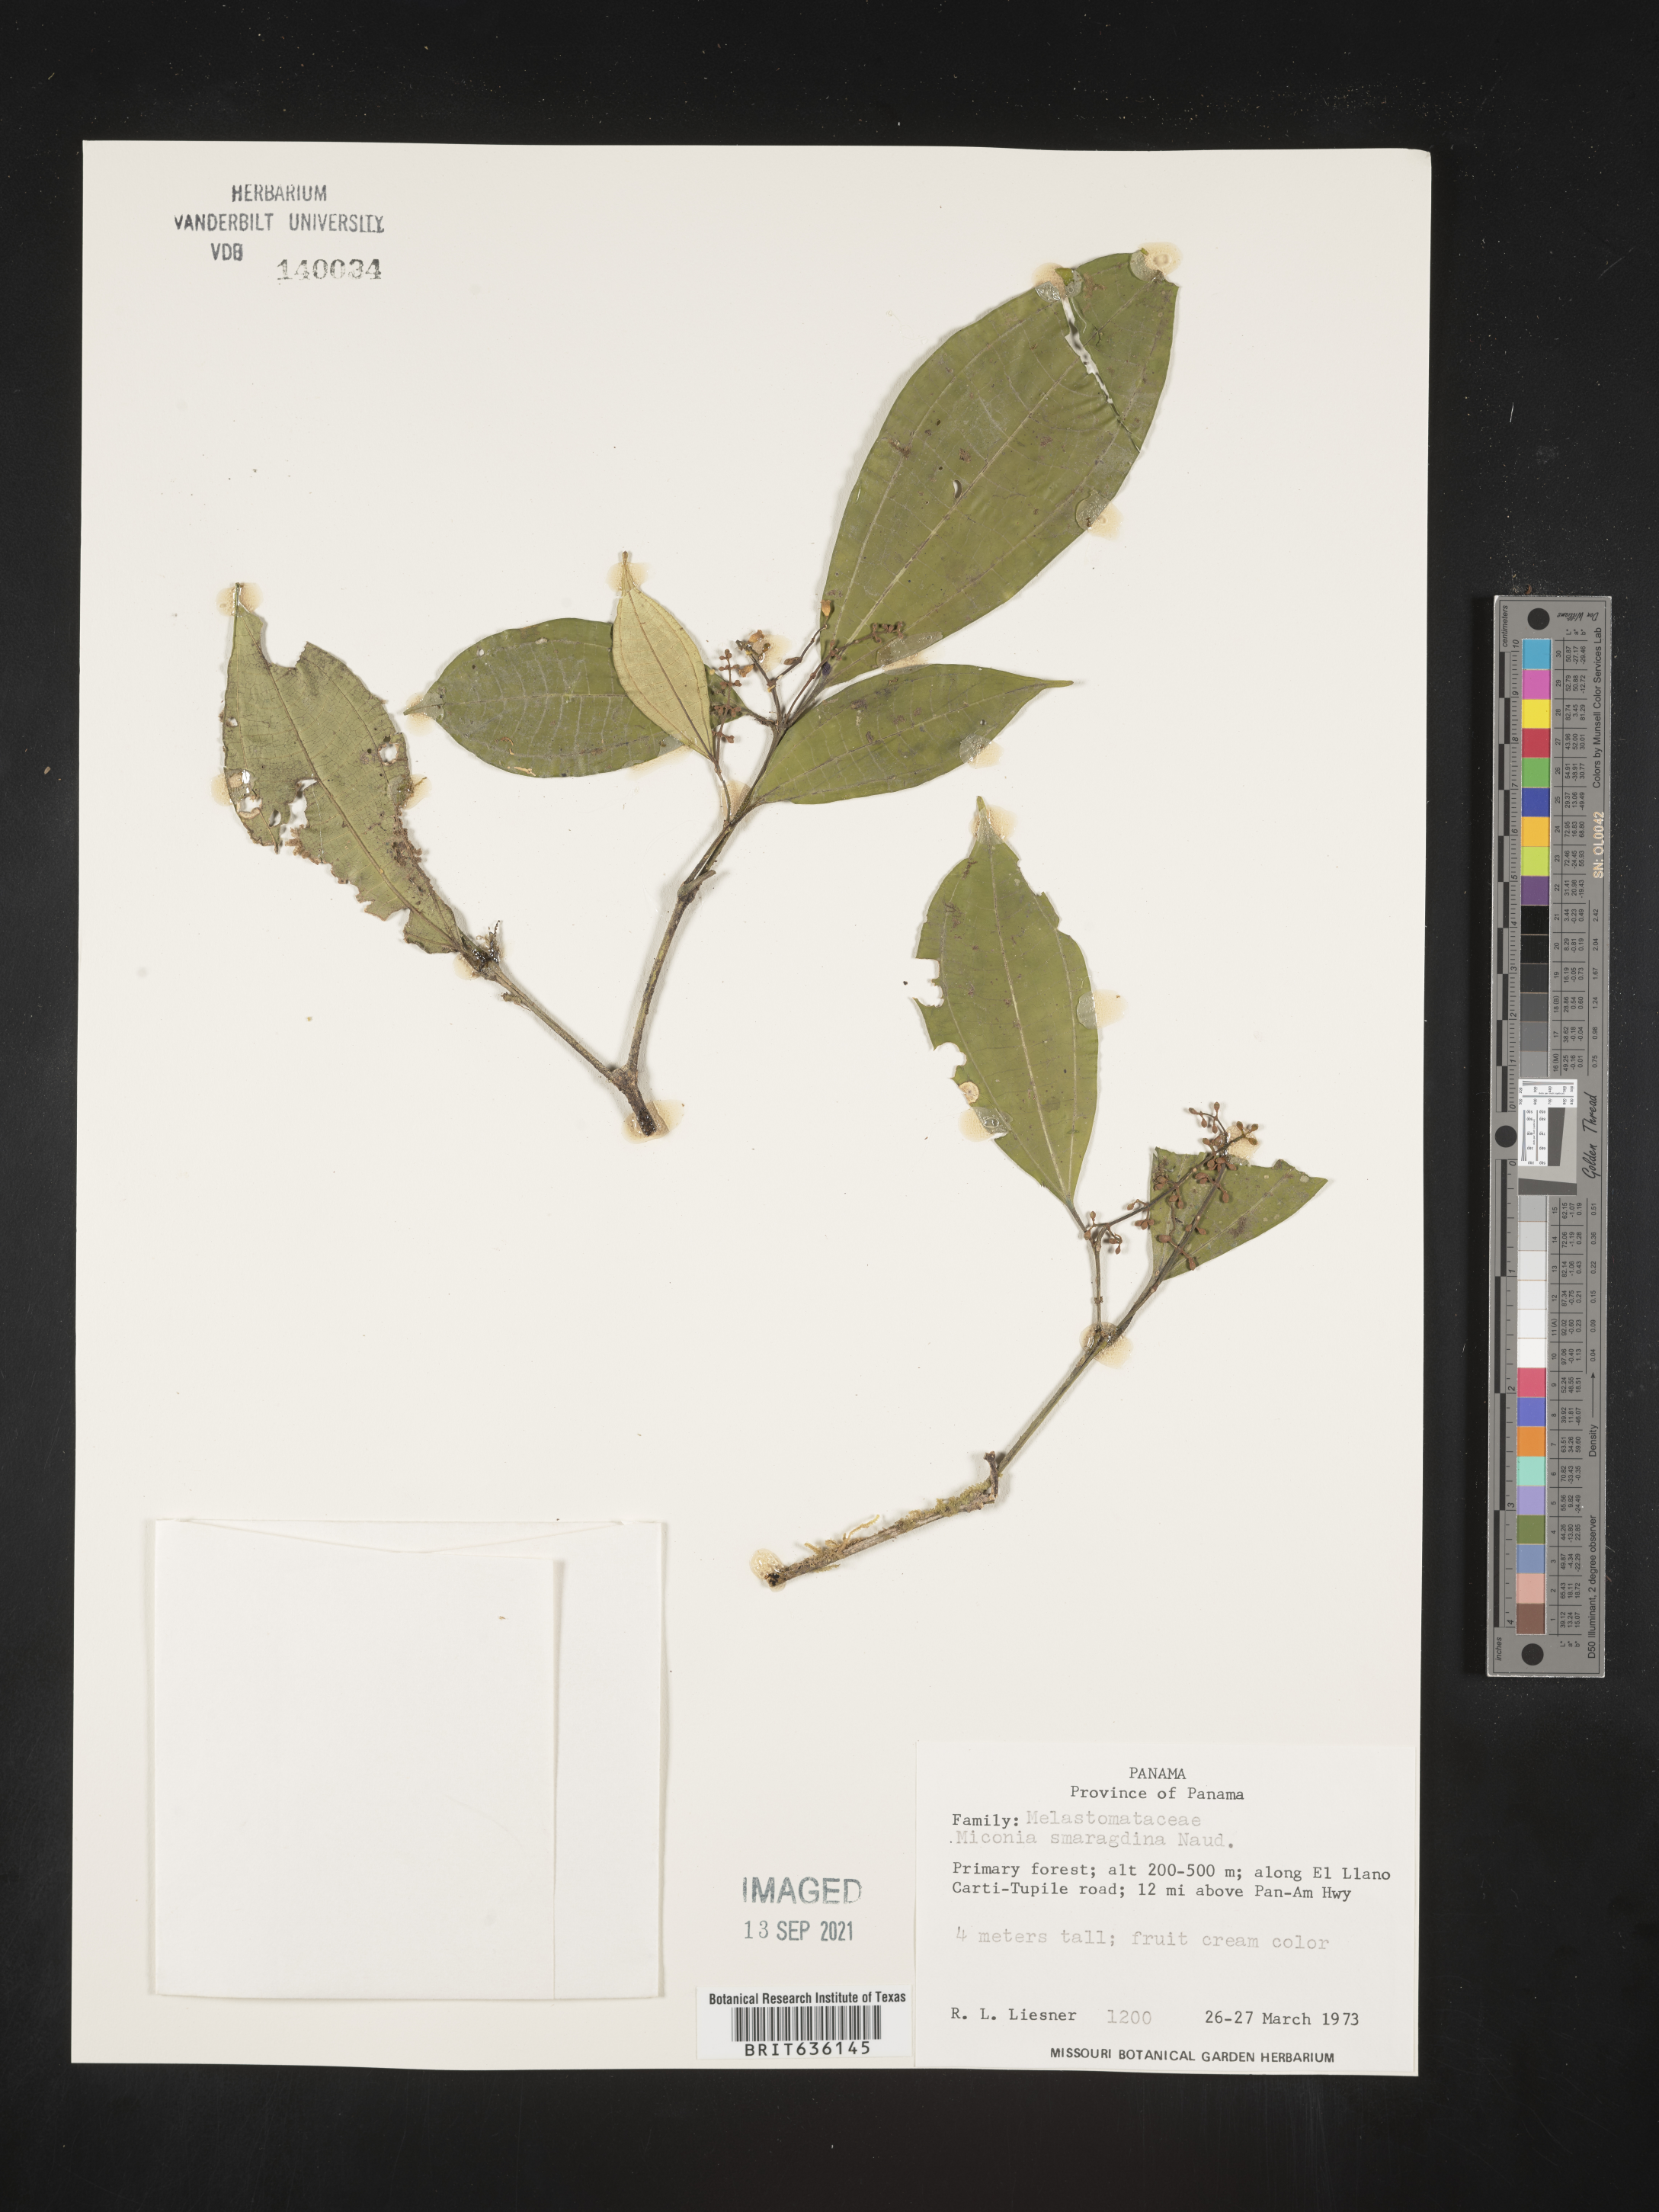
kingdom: Plantae
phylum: Tracheophyta
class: Magnoliopsida
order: Myrtales
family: Melastomataceae
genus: Miconia
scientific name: Miconia
